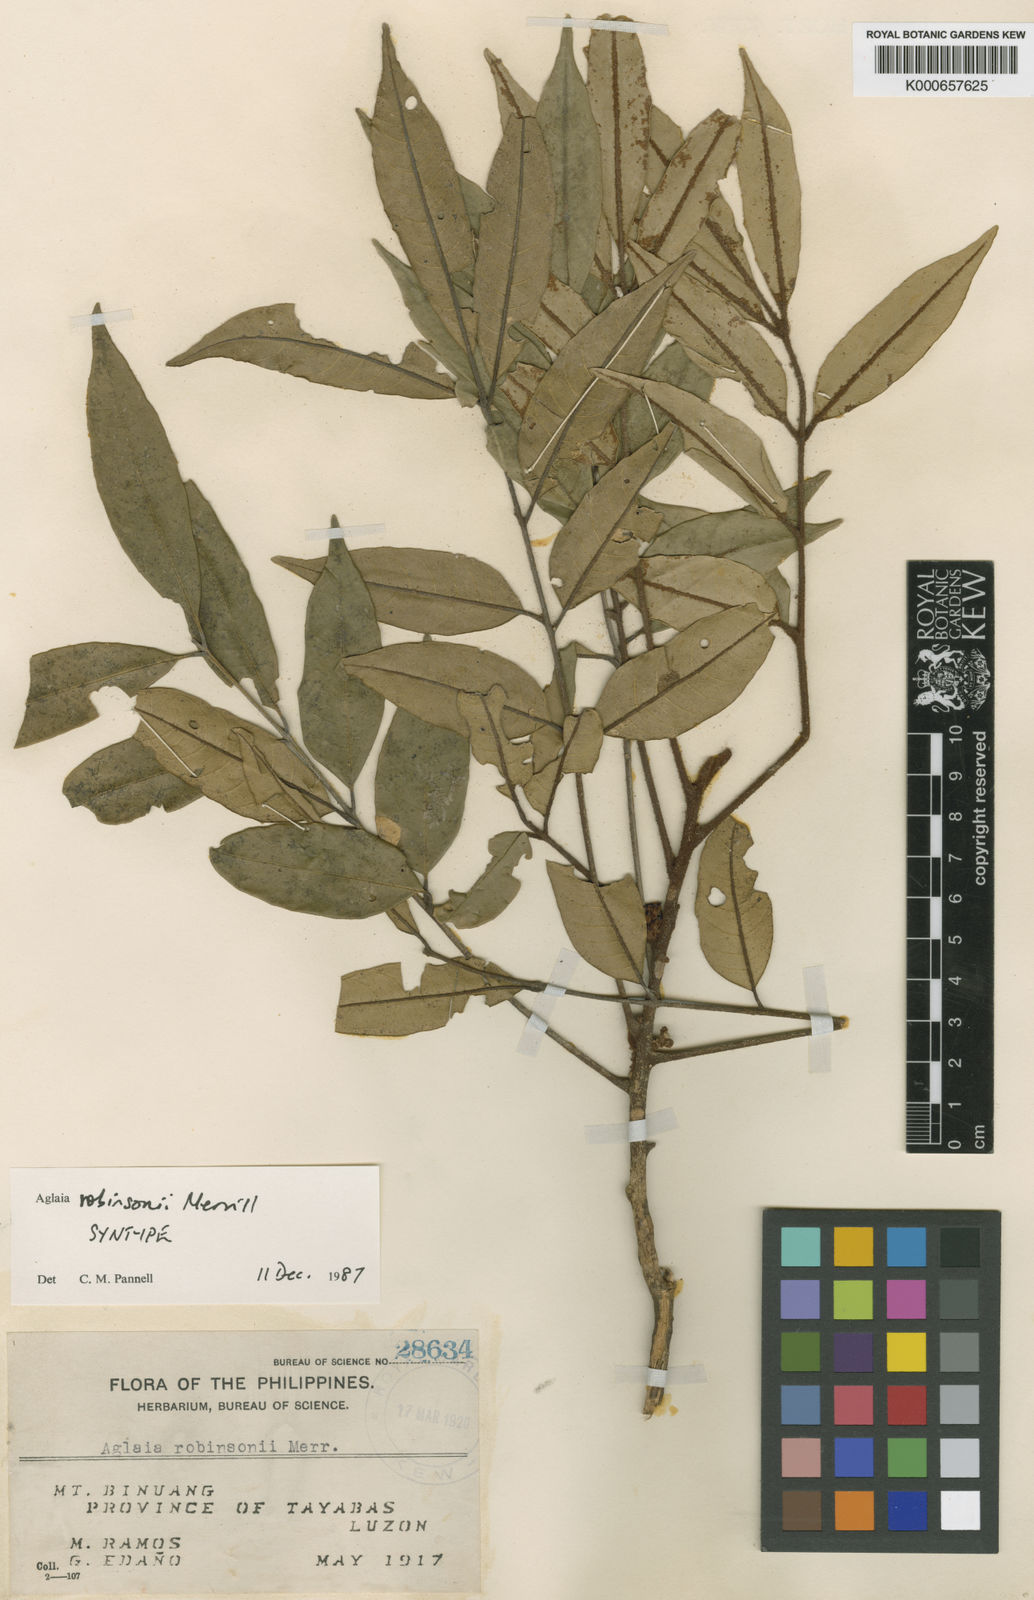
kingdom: Plantae
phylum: Tracheophyta
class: Magnoliopsida
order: Sapindales
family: Meliaceae
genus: Aglaia
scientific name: Aglaia elliptica
